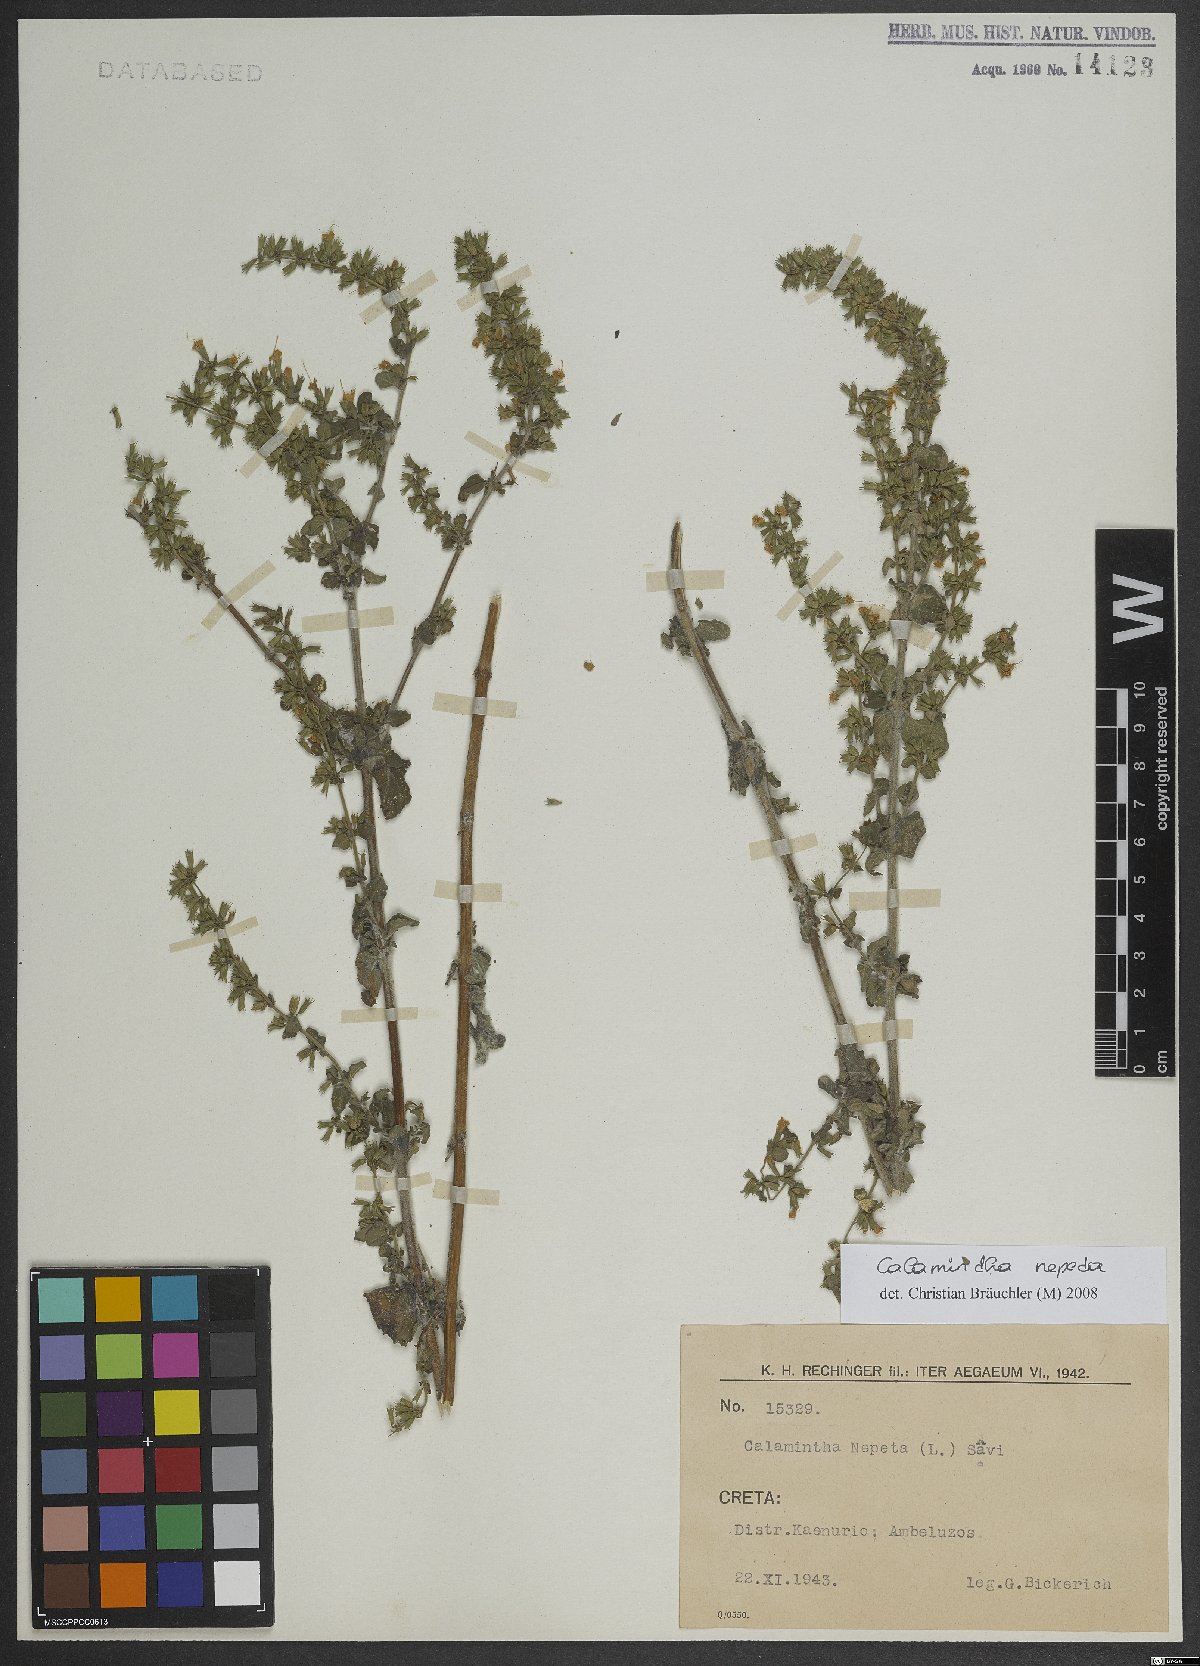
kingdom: Plantae
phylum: Tracheophyta
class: Magnoliopsida
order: Lamiales
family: Lamiaceae
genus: Clinopodium
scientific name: Clinopodium nepeta
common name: Lesser calamint
